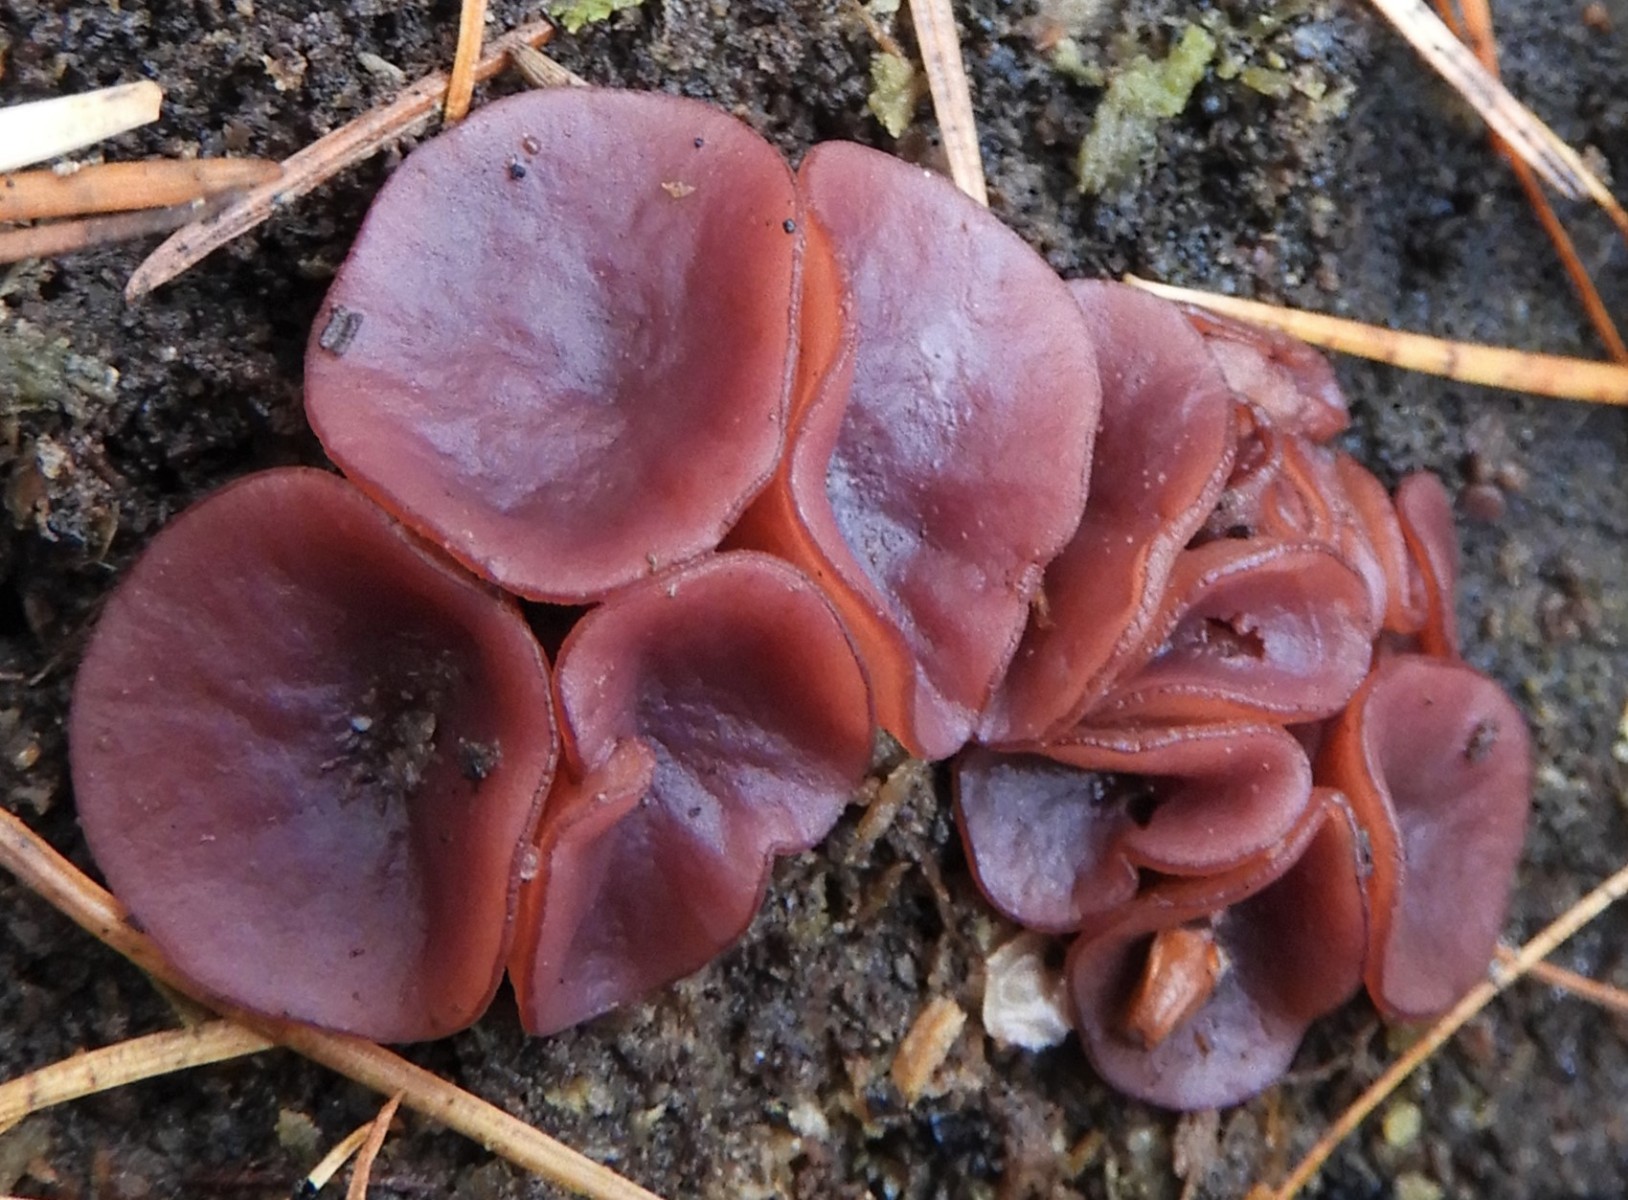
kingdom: Fungi
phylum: Ascomycota
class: Leotiomycetes
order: Helotiales
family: Gelatinodiscaceae
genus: Ascocoryne
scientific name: Ascocoryne cylichnium
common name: stor sejskive
